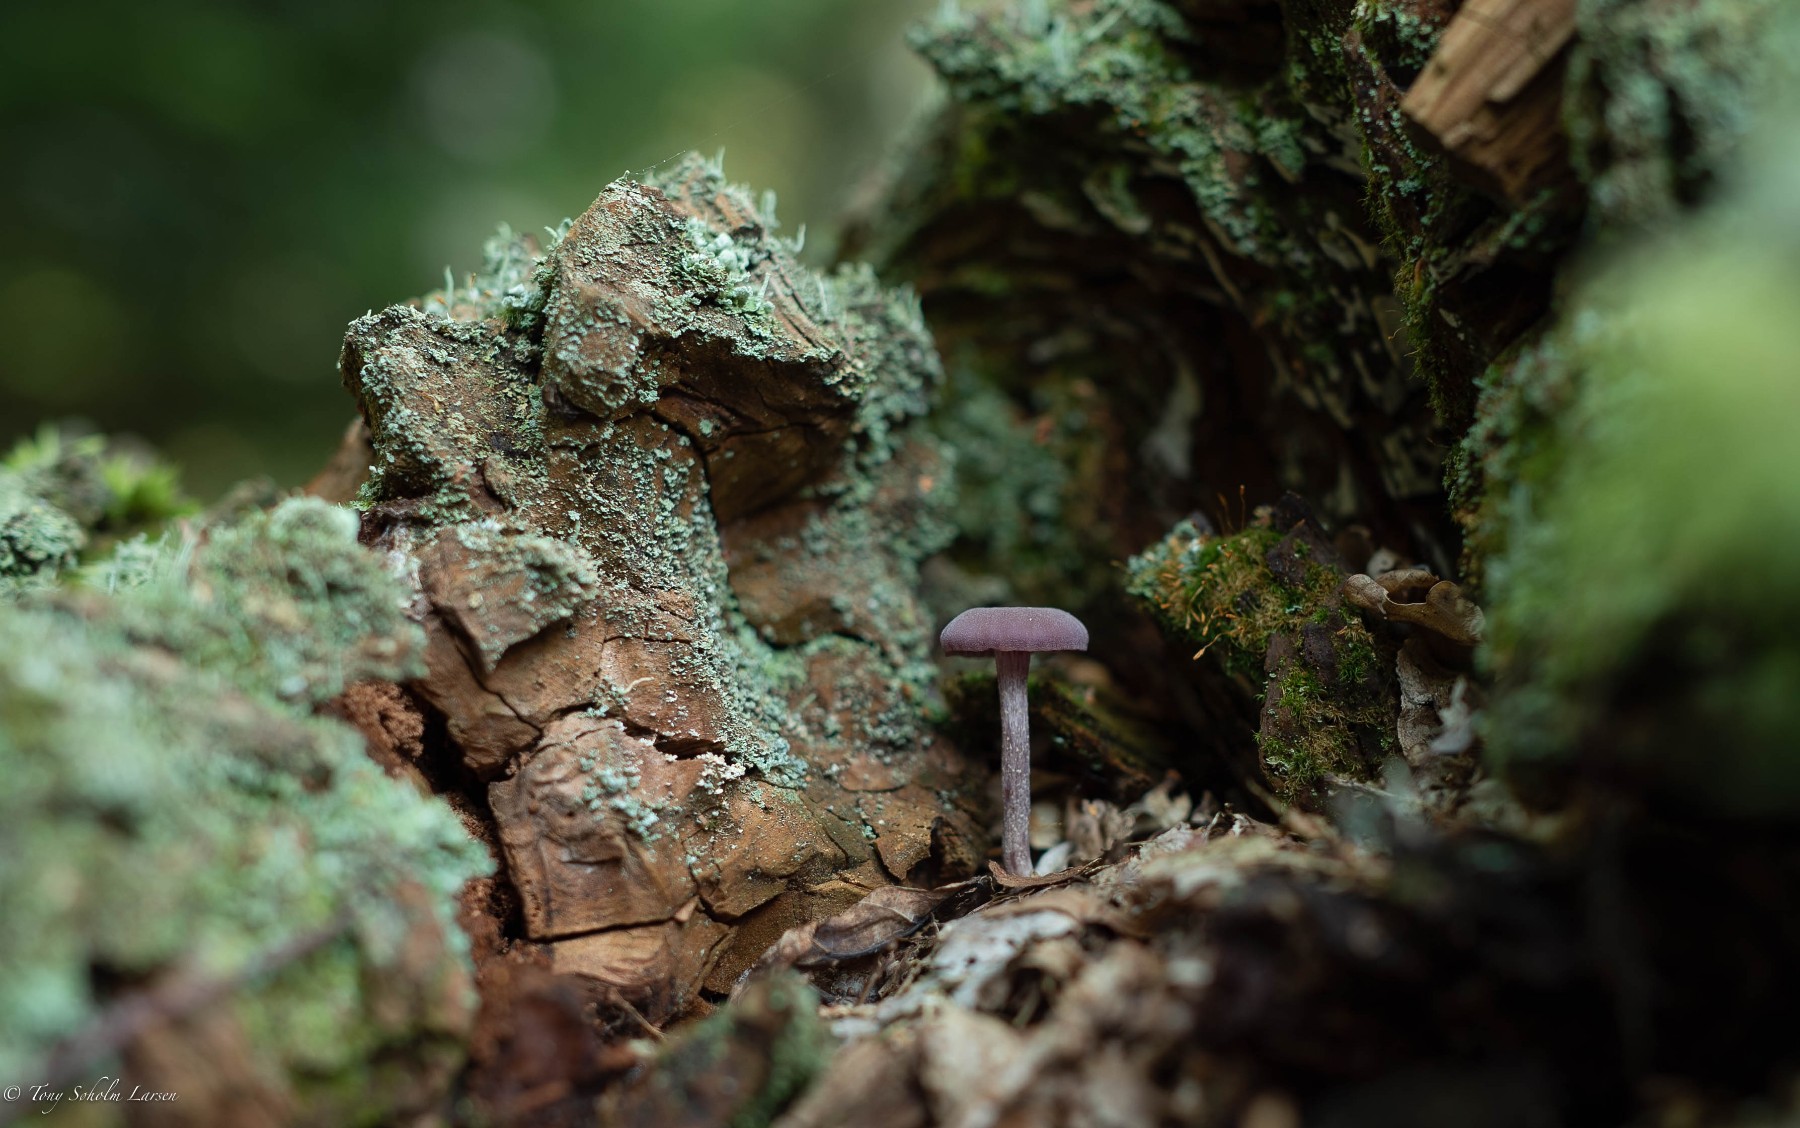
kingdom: Fungi
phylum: Basidiomycota
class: Agaricomycetes
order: Agaricales
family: Hydnangiaceae
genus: Laccaria
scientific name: Laccaria amethystina
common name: violet ametysthat
